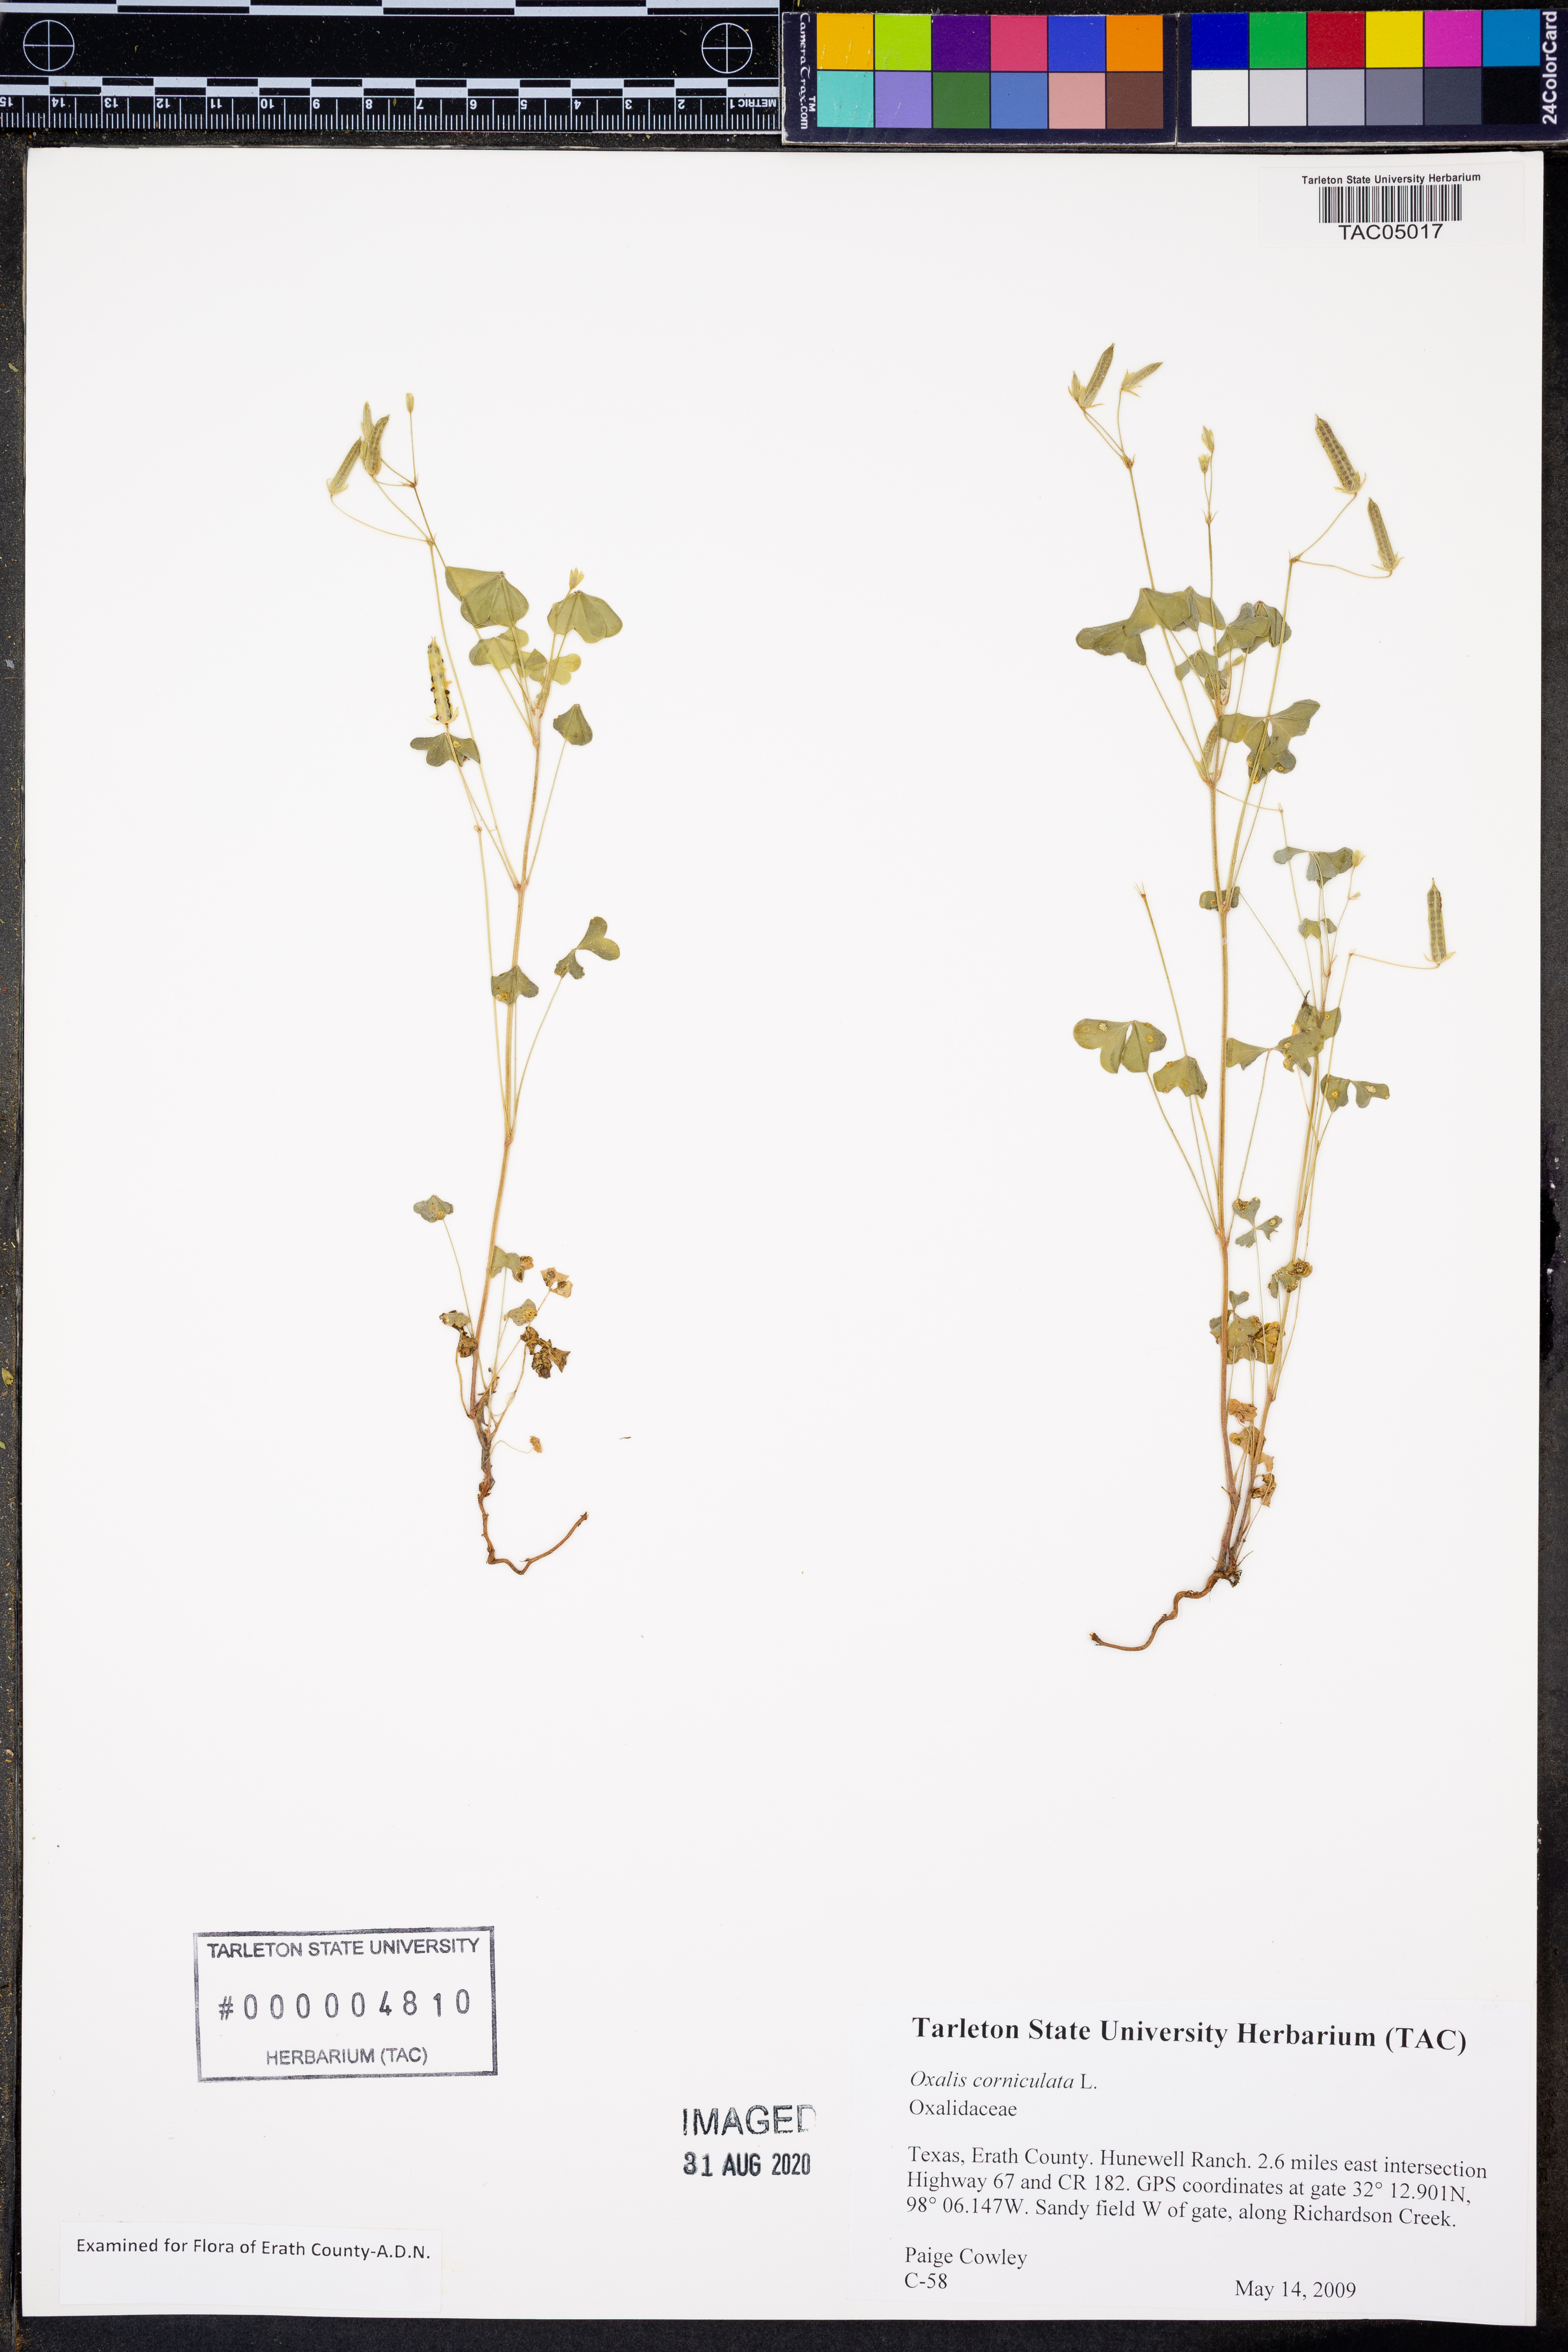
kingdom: Plantae
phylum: Tracheophyta
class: Magnoliopsida
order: Oxalidales
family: Oxalidaceae
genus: Oxalis
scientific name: Oxalis corniculata
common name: Procumbent yellow-sorrel
